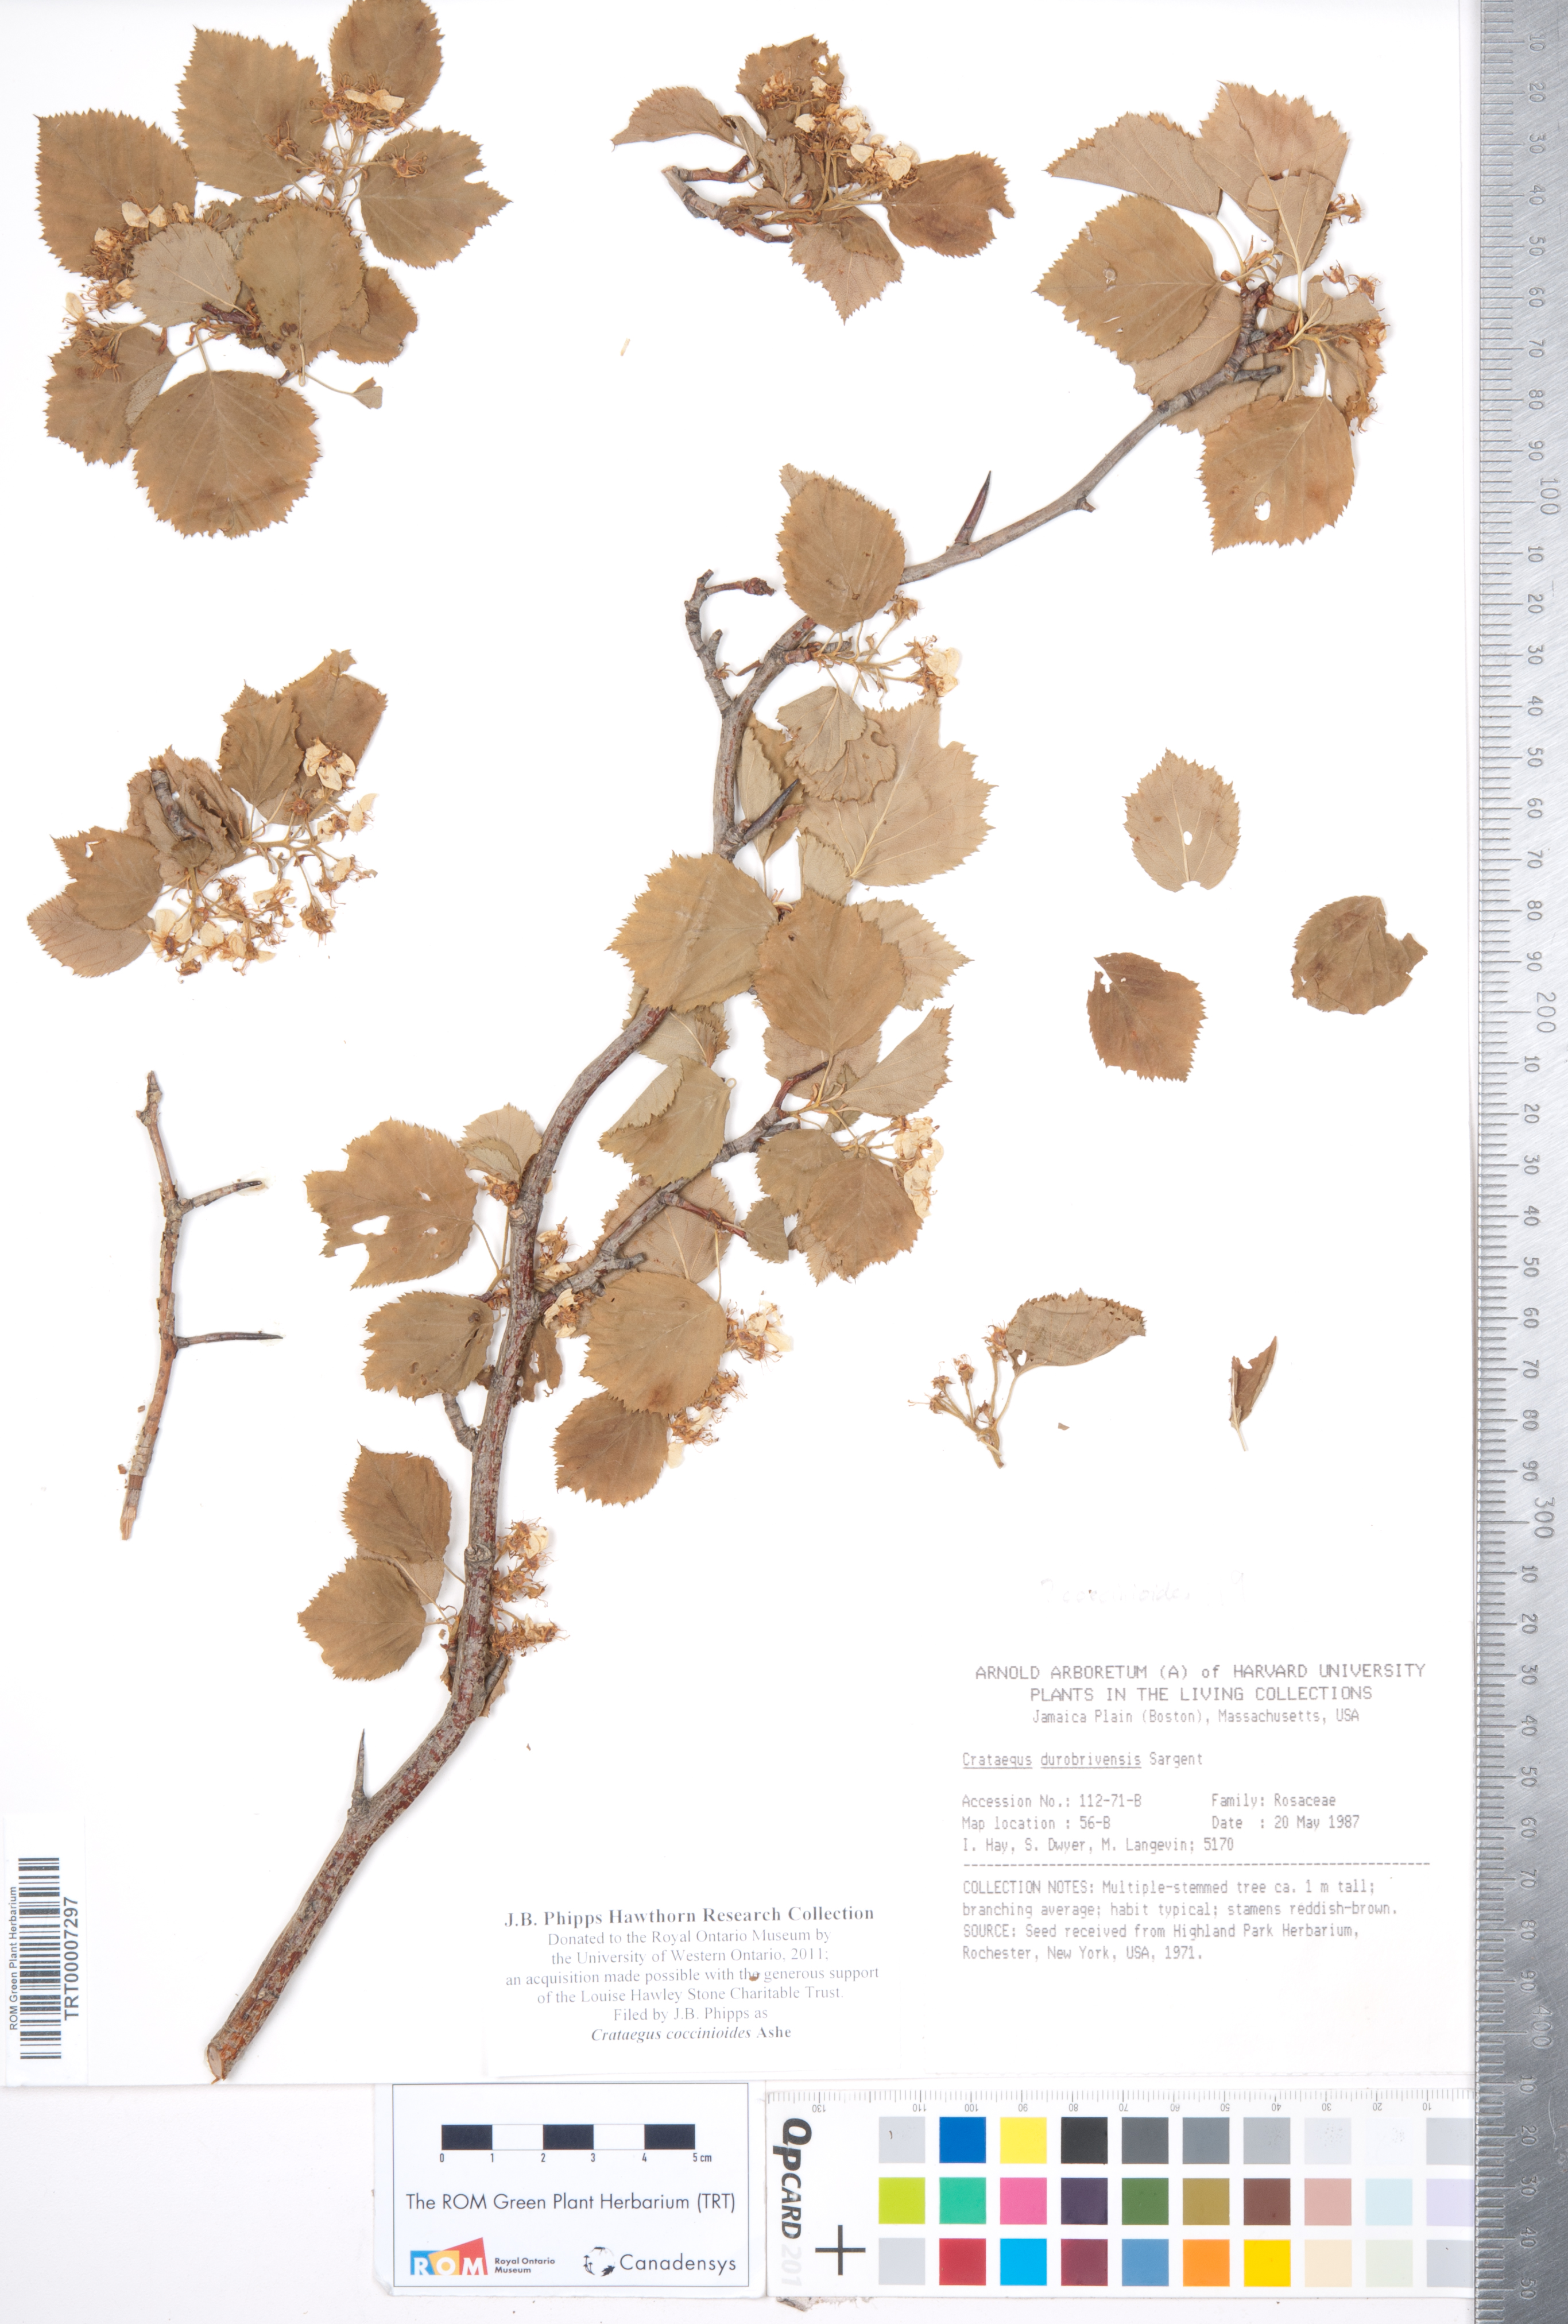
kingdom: Plantae
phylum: Tracheophyta
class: Magnoliopsida
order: Rosales
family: Rosaceae
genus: Crataegus
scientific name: Crataegus coccinioides
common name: Large-flowered cockspurthorn
